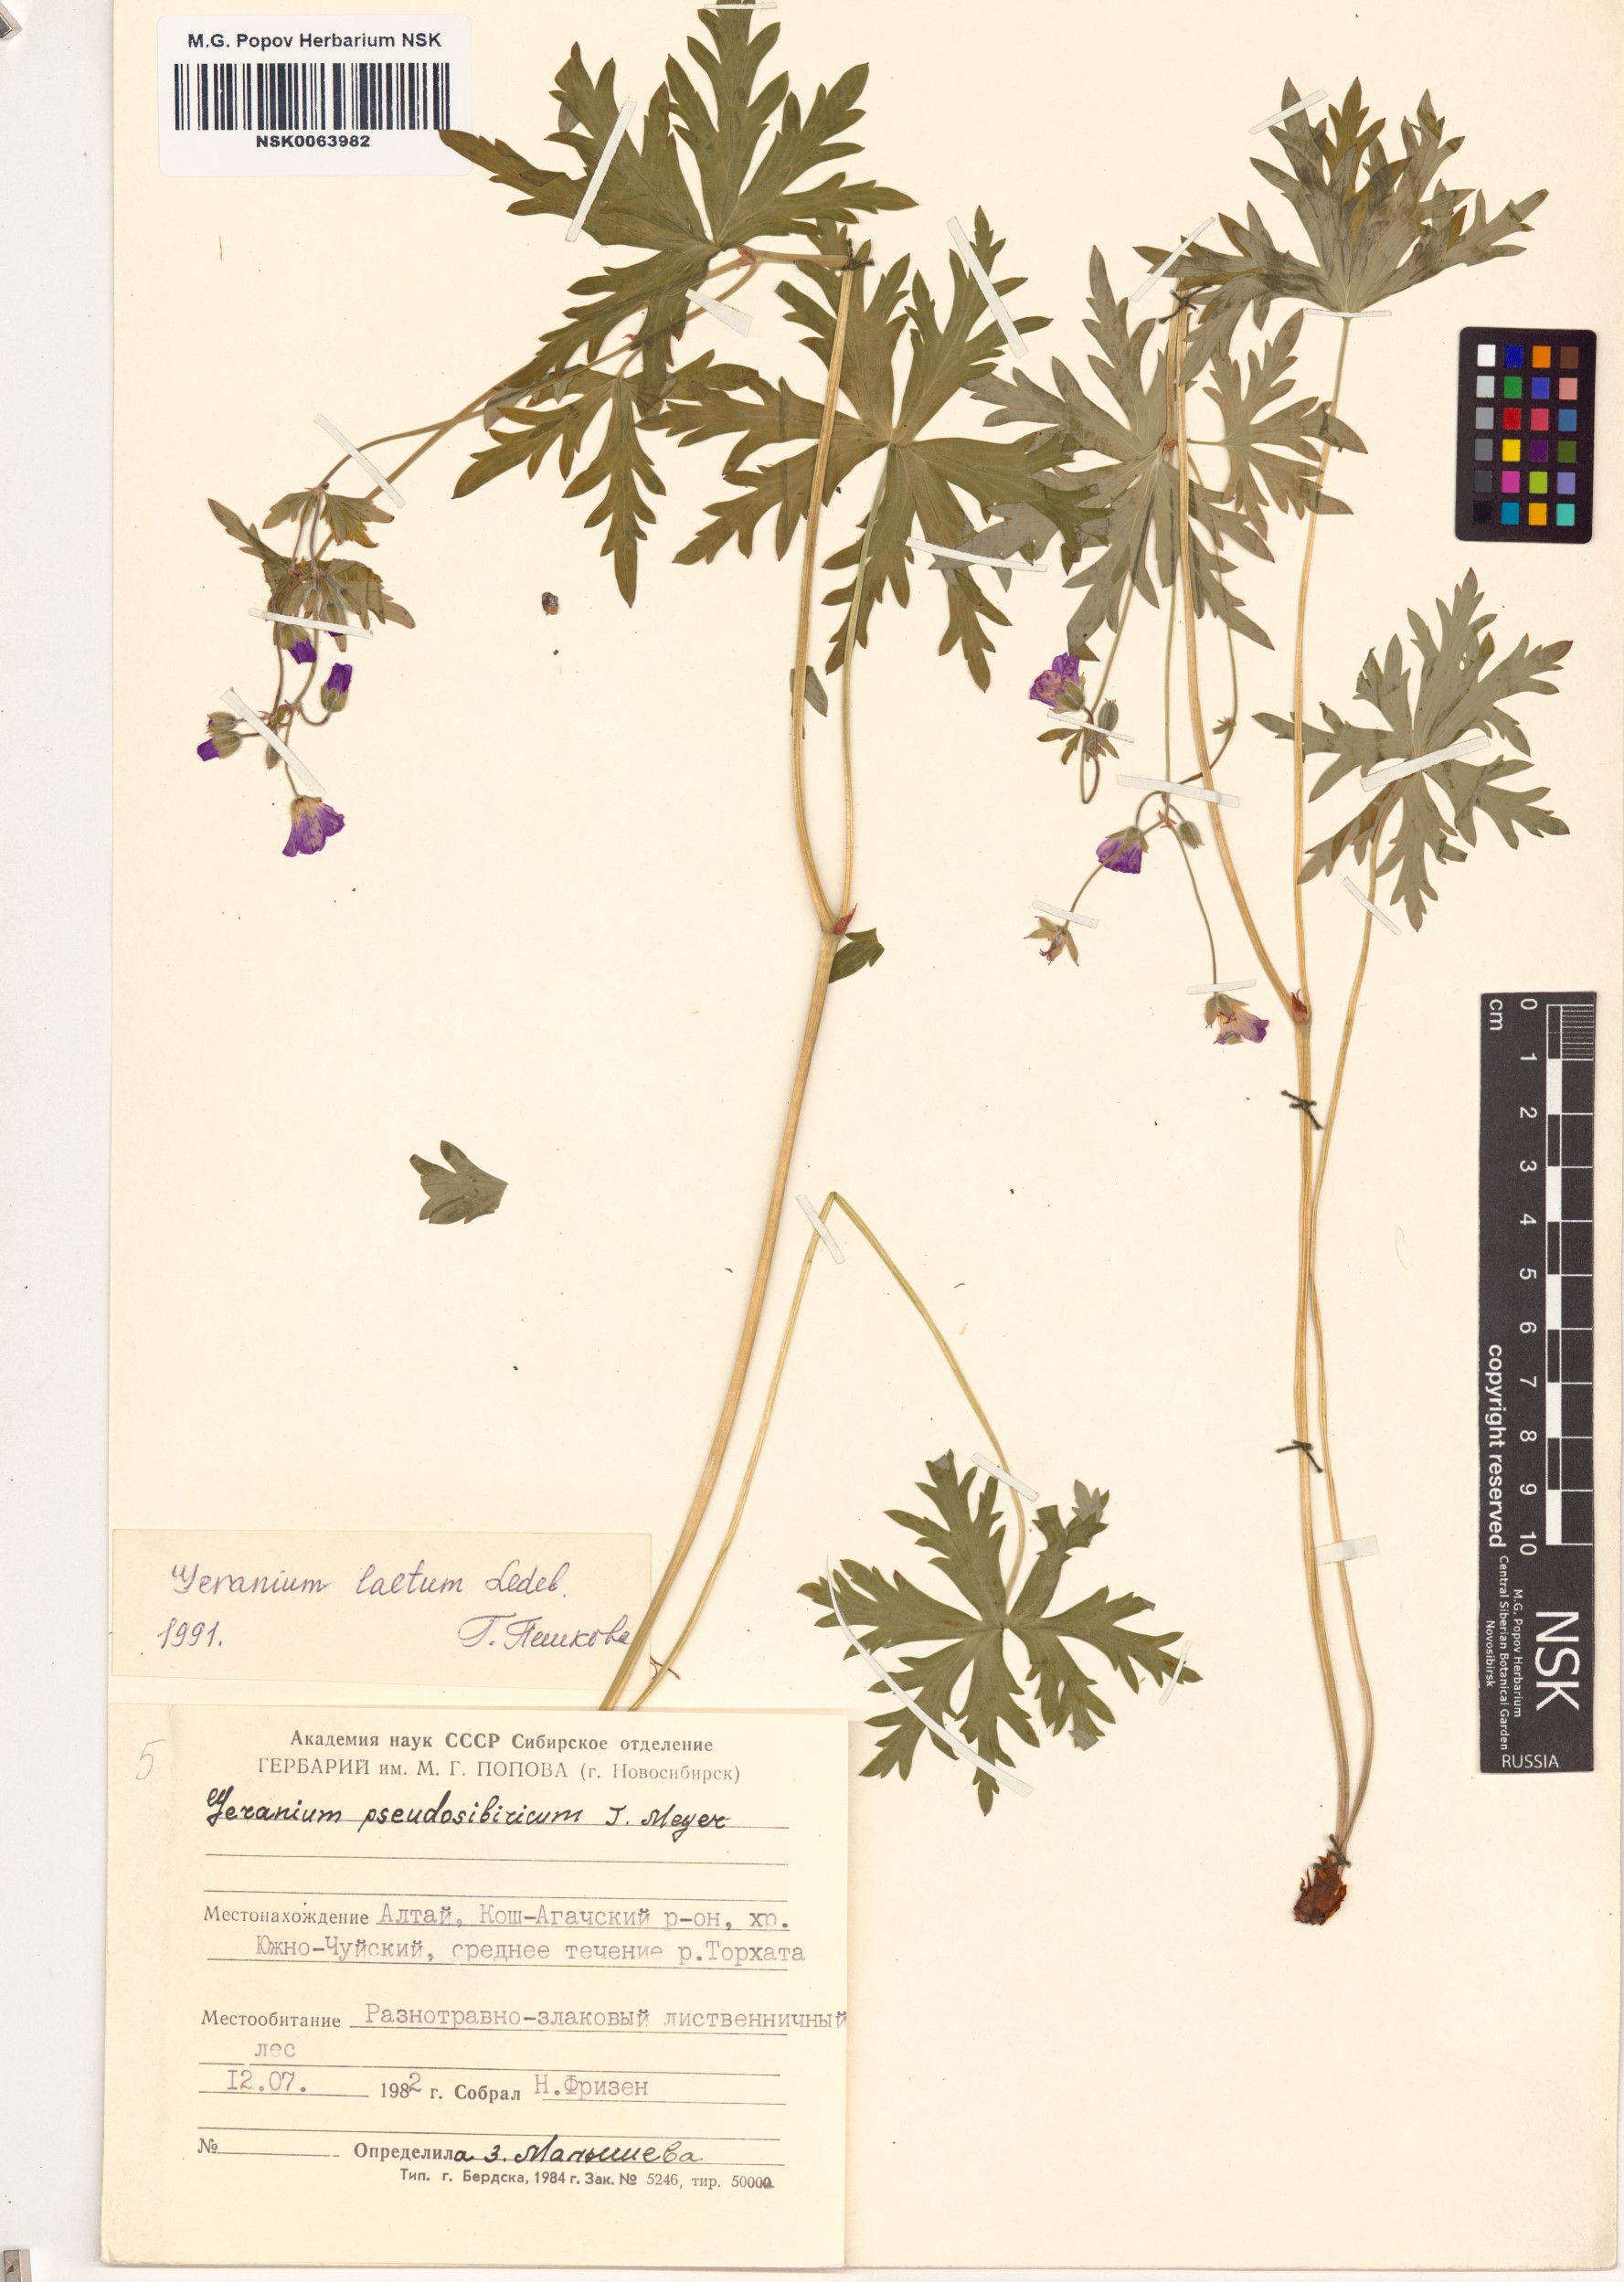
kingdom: Plantae
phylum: Tracheophyta
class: Magnoliopsida
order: Geraniales
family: Geraniaceae
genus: Geranium
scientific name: Geranium pseudosibiricum
